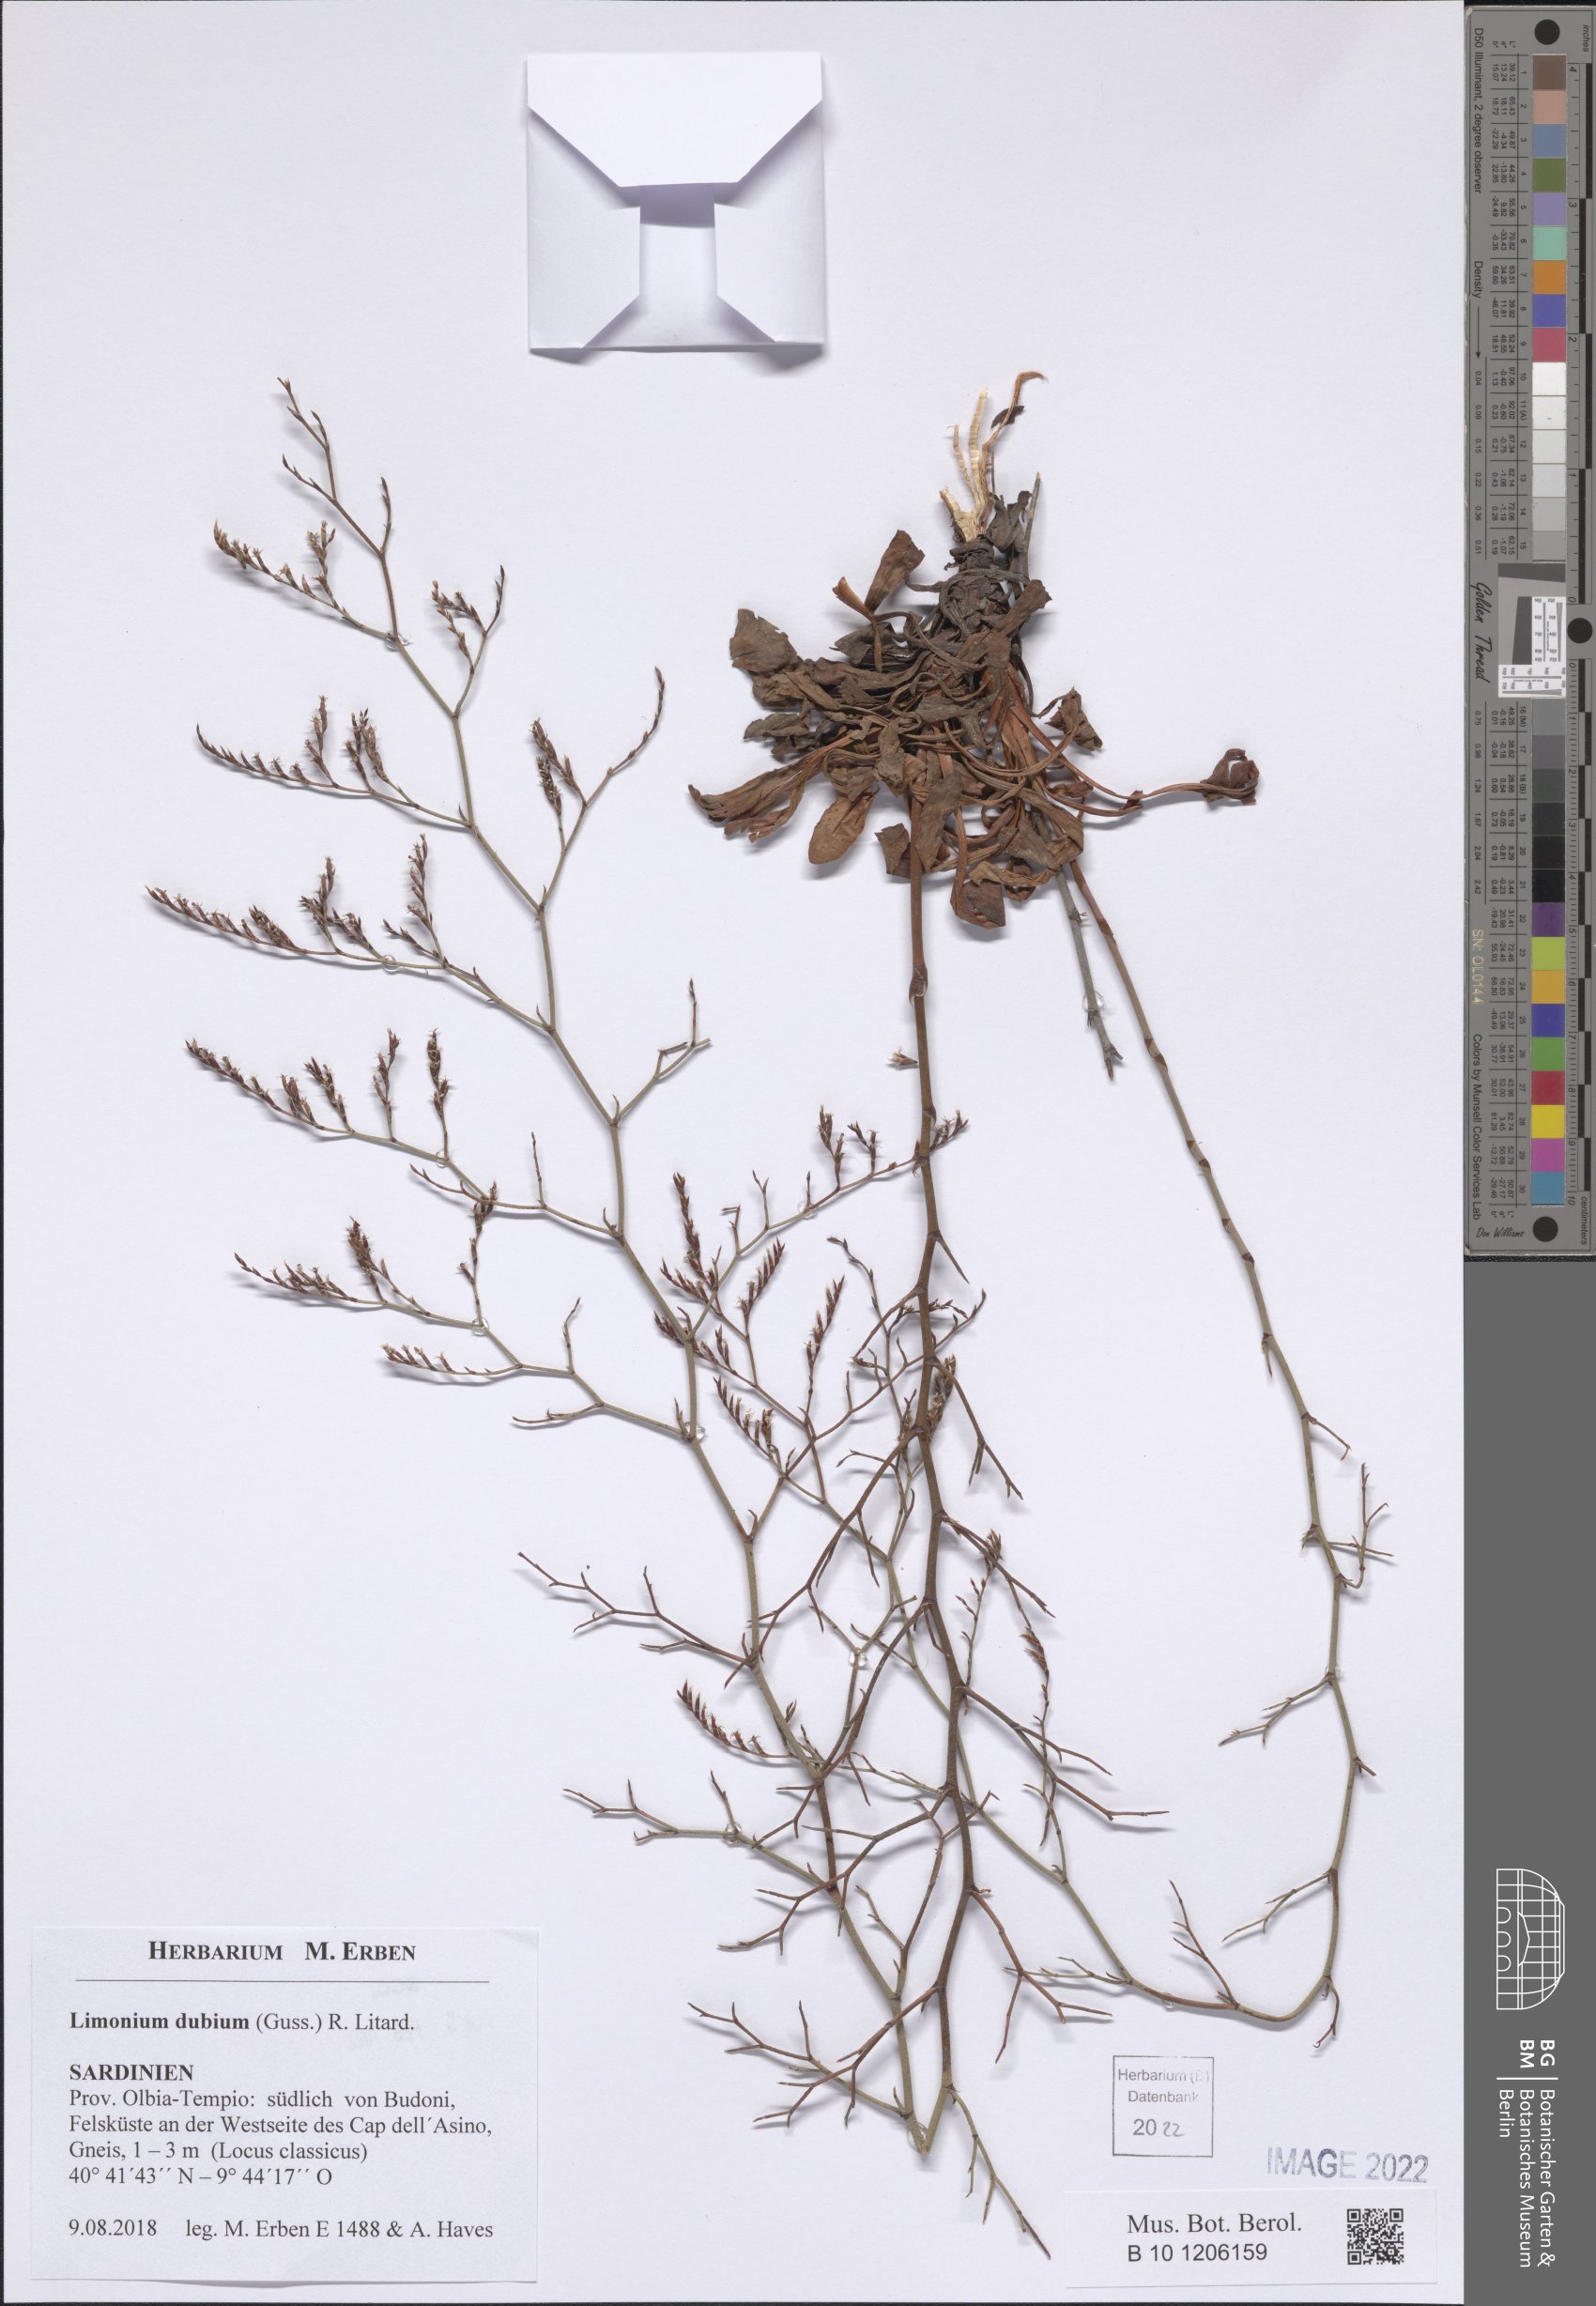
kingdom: Plantae
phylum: Tracheophyta
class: Magnoliopsida
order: Caryophyllales
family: Plumbaginaceae
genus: Limonium
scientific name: Limonium dubium
